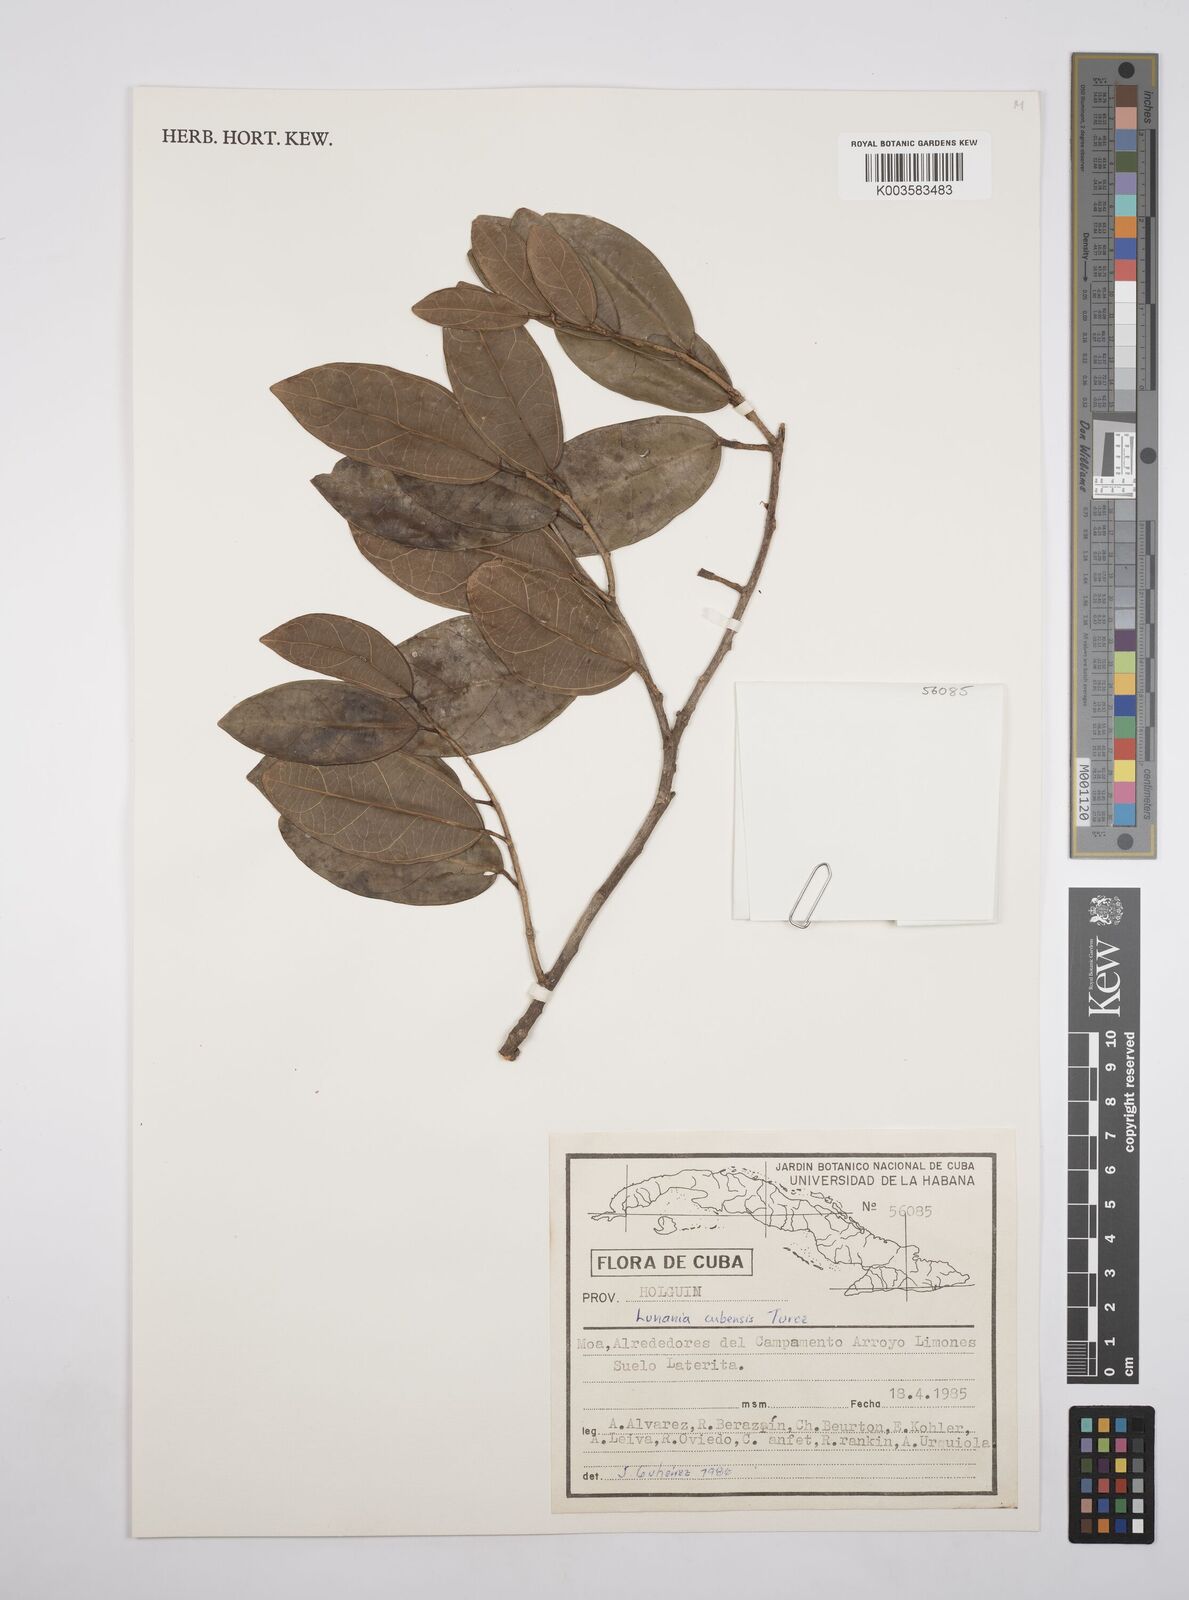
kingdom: Plantae
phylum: Tracheophyta
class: Magnoliopsida
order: Malpighiales
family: Salicaceae
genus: Lunania
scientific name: Lunania cubensis
